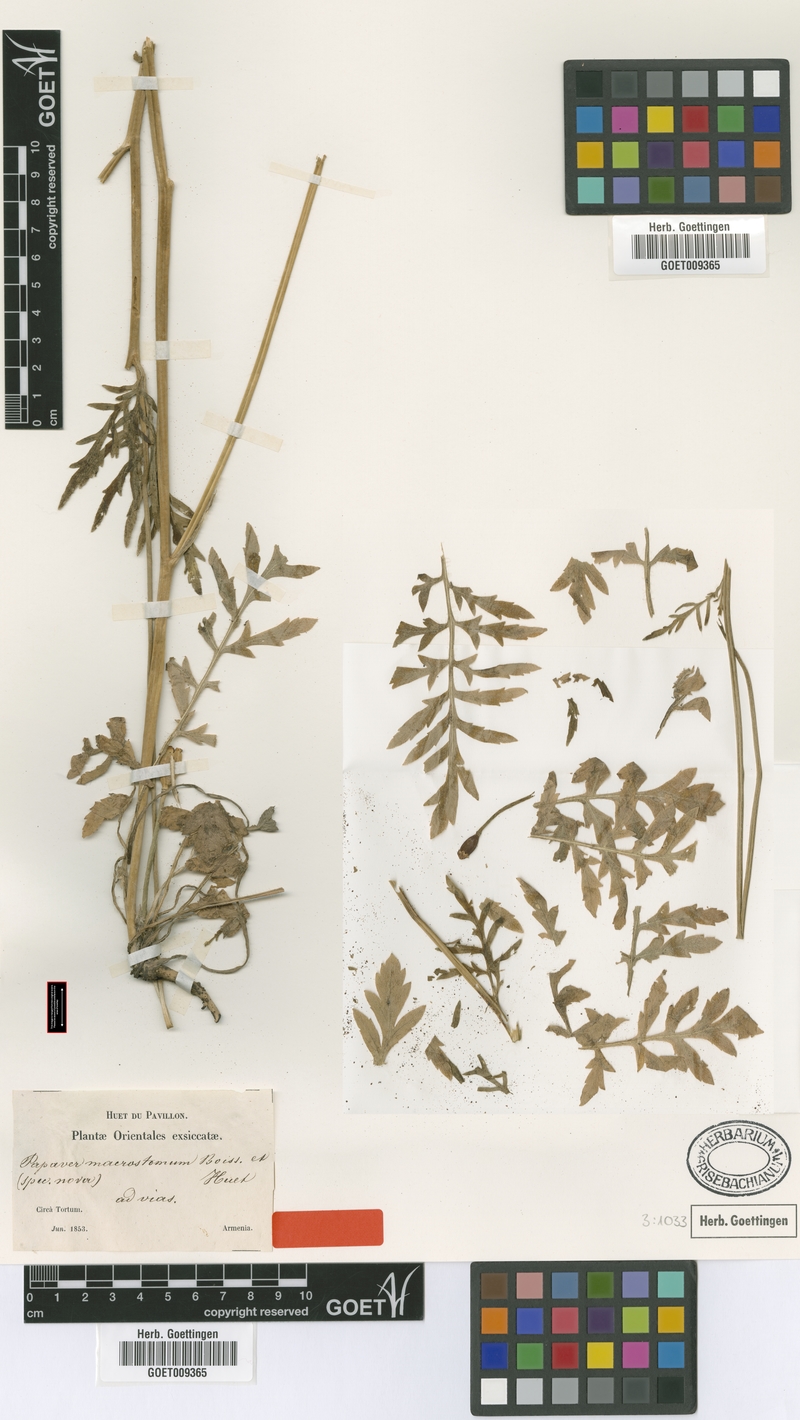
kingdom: Plantae
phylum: Tracheophyta
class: Magnoliopsida
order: Ranunculales
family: Papaveraceae
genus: Papaver
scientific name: Papaver macrostomum
